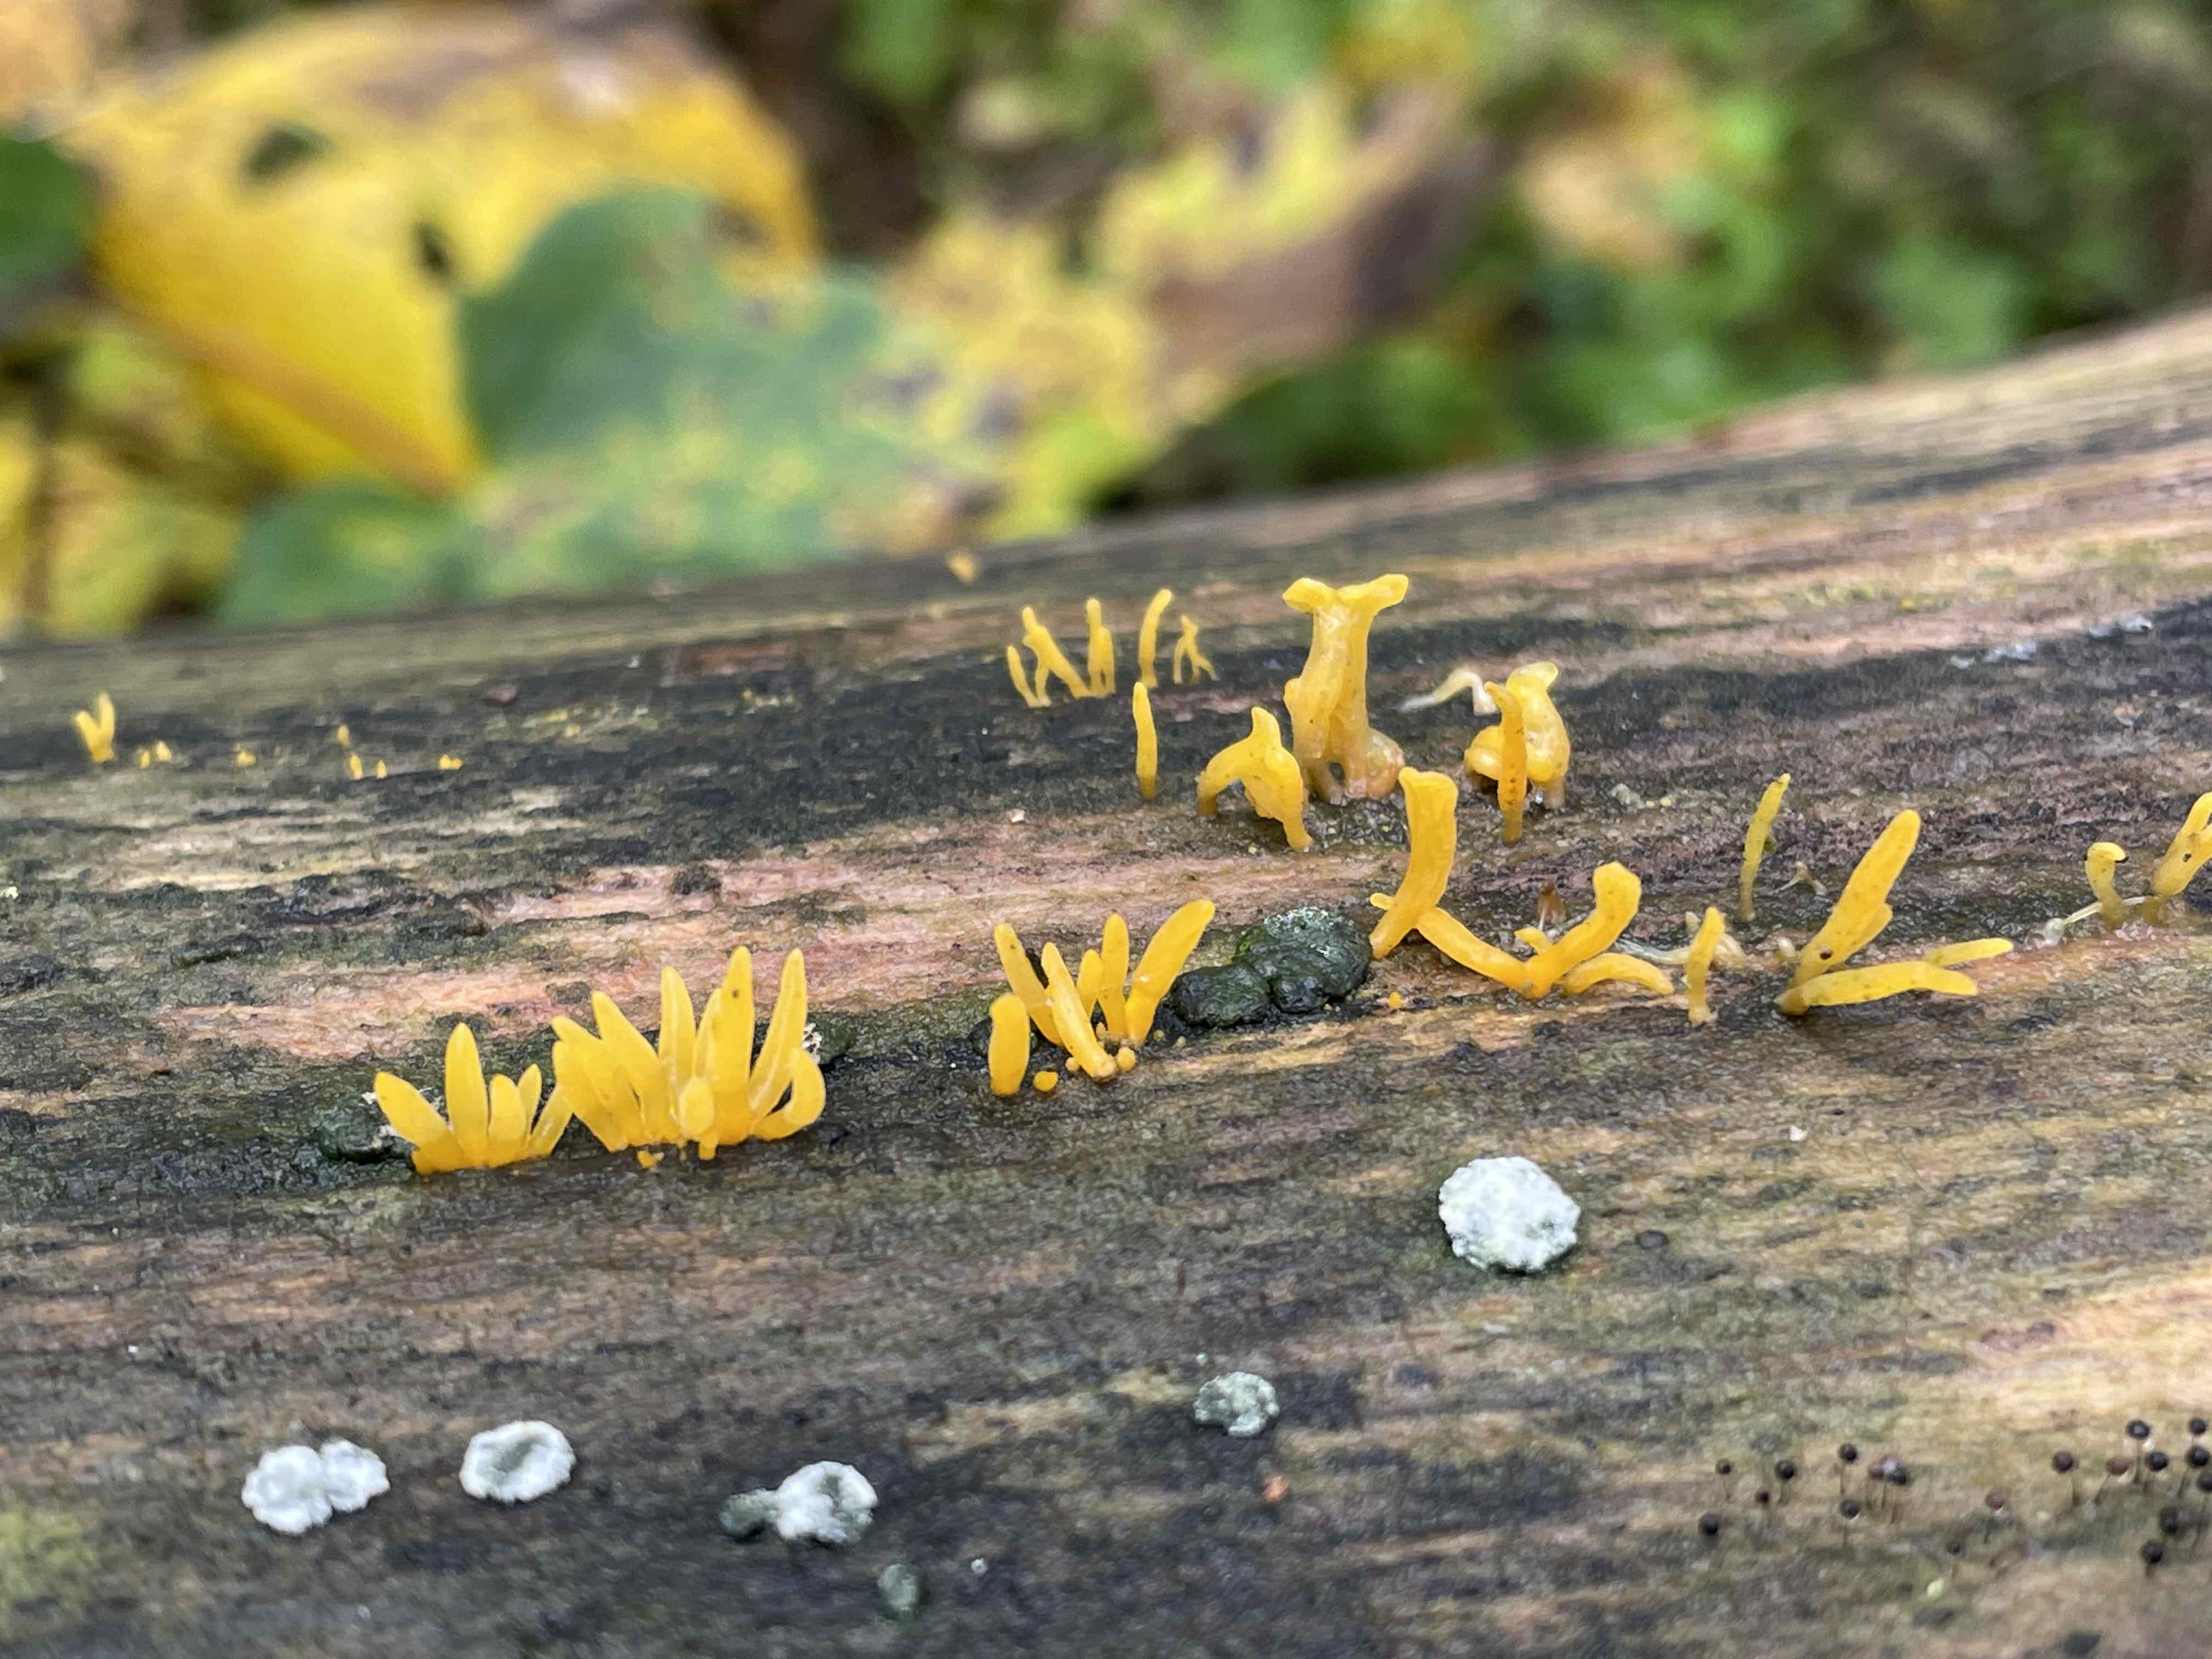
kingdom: Fungi
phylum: Basidiomycota
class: Dacrymycetes
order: Dacrymycetales
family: Dacrymycetaceae
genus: Calocera
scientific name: Calocera cornea
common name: liden guldgaffel
